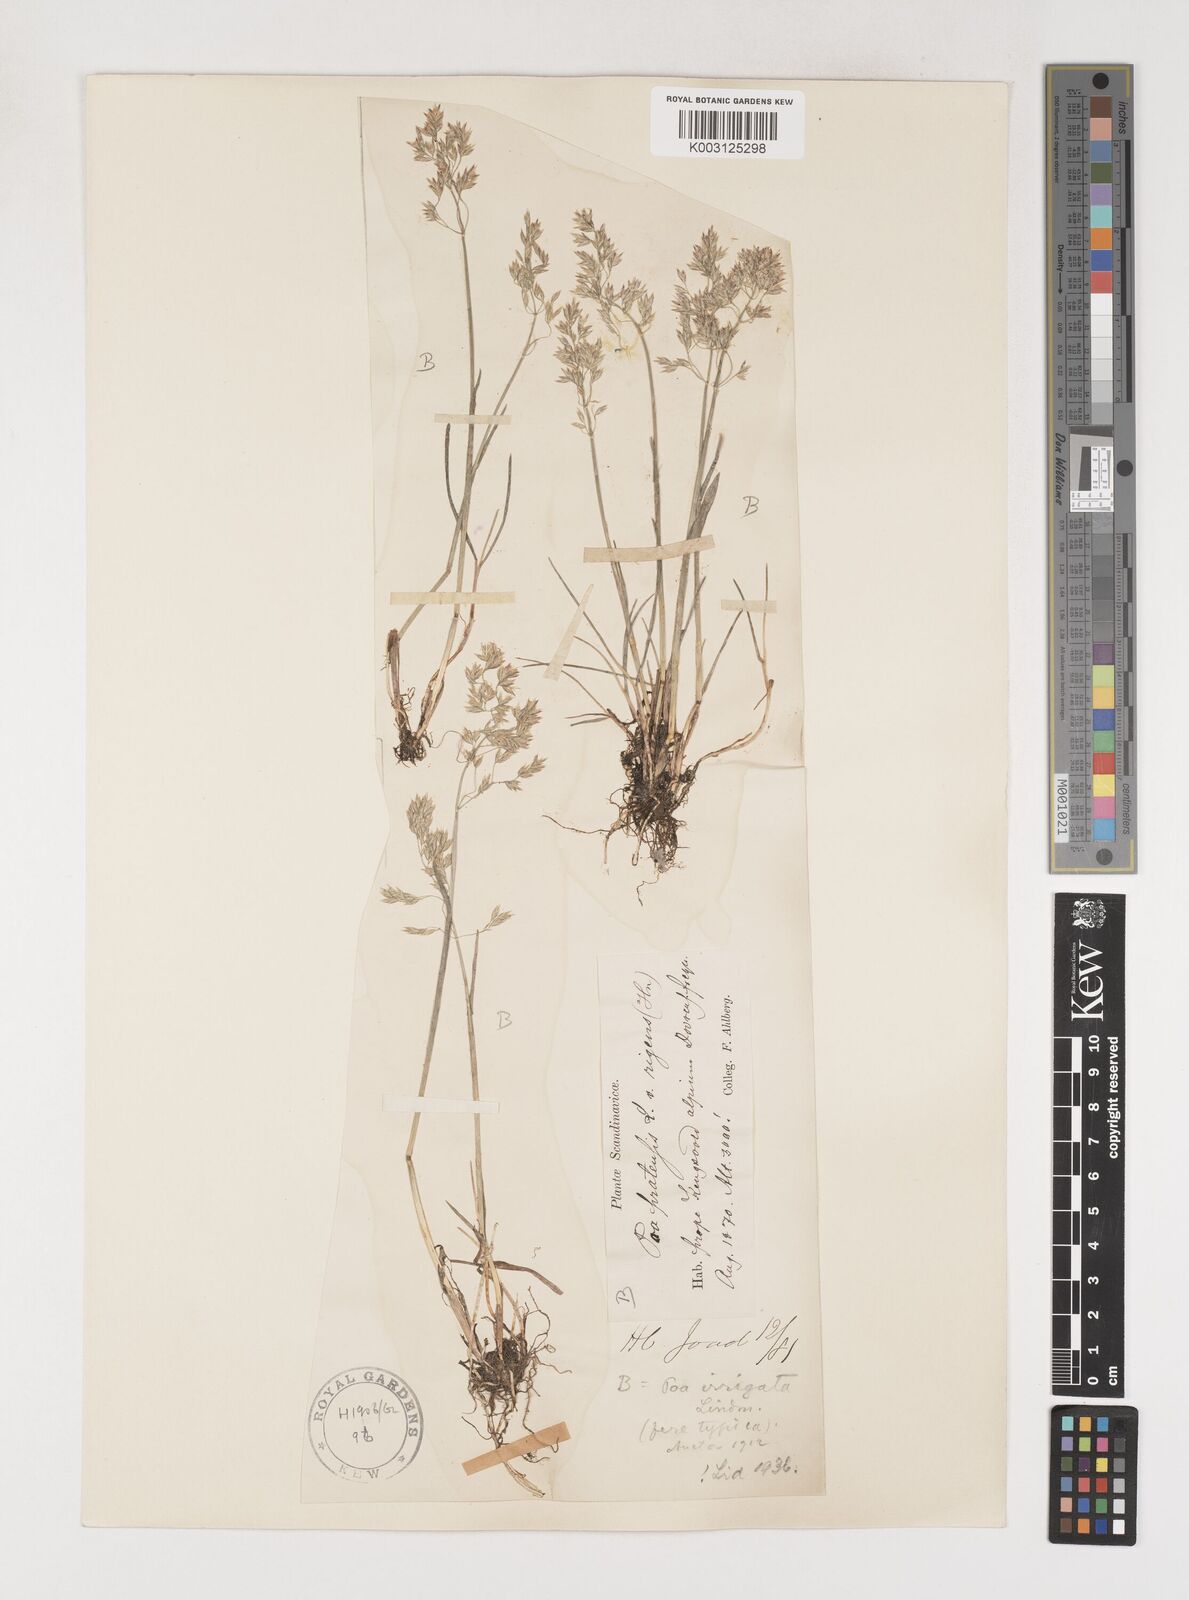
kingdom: Plantae
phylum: Tracheophyta
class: Liliopsida
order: Poales
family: Poaceae
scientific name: Poaceae
